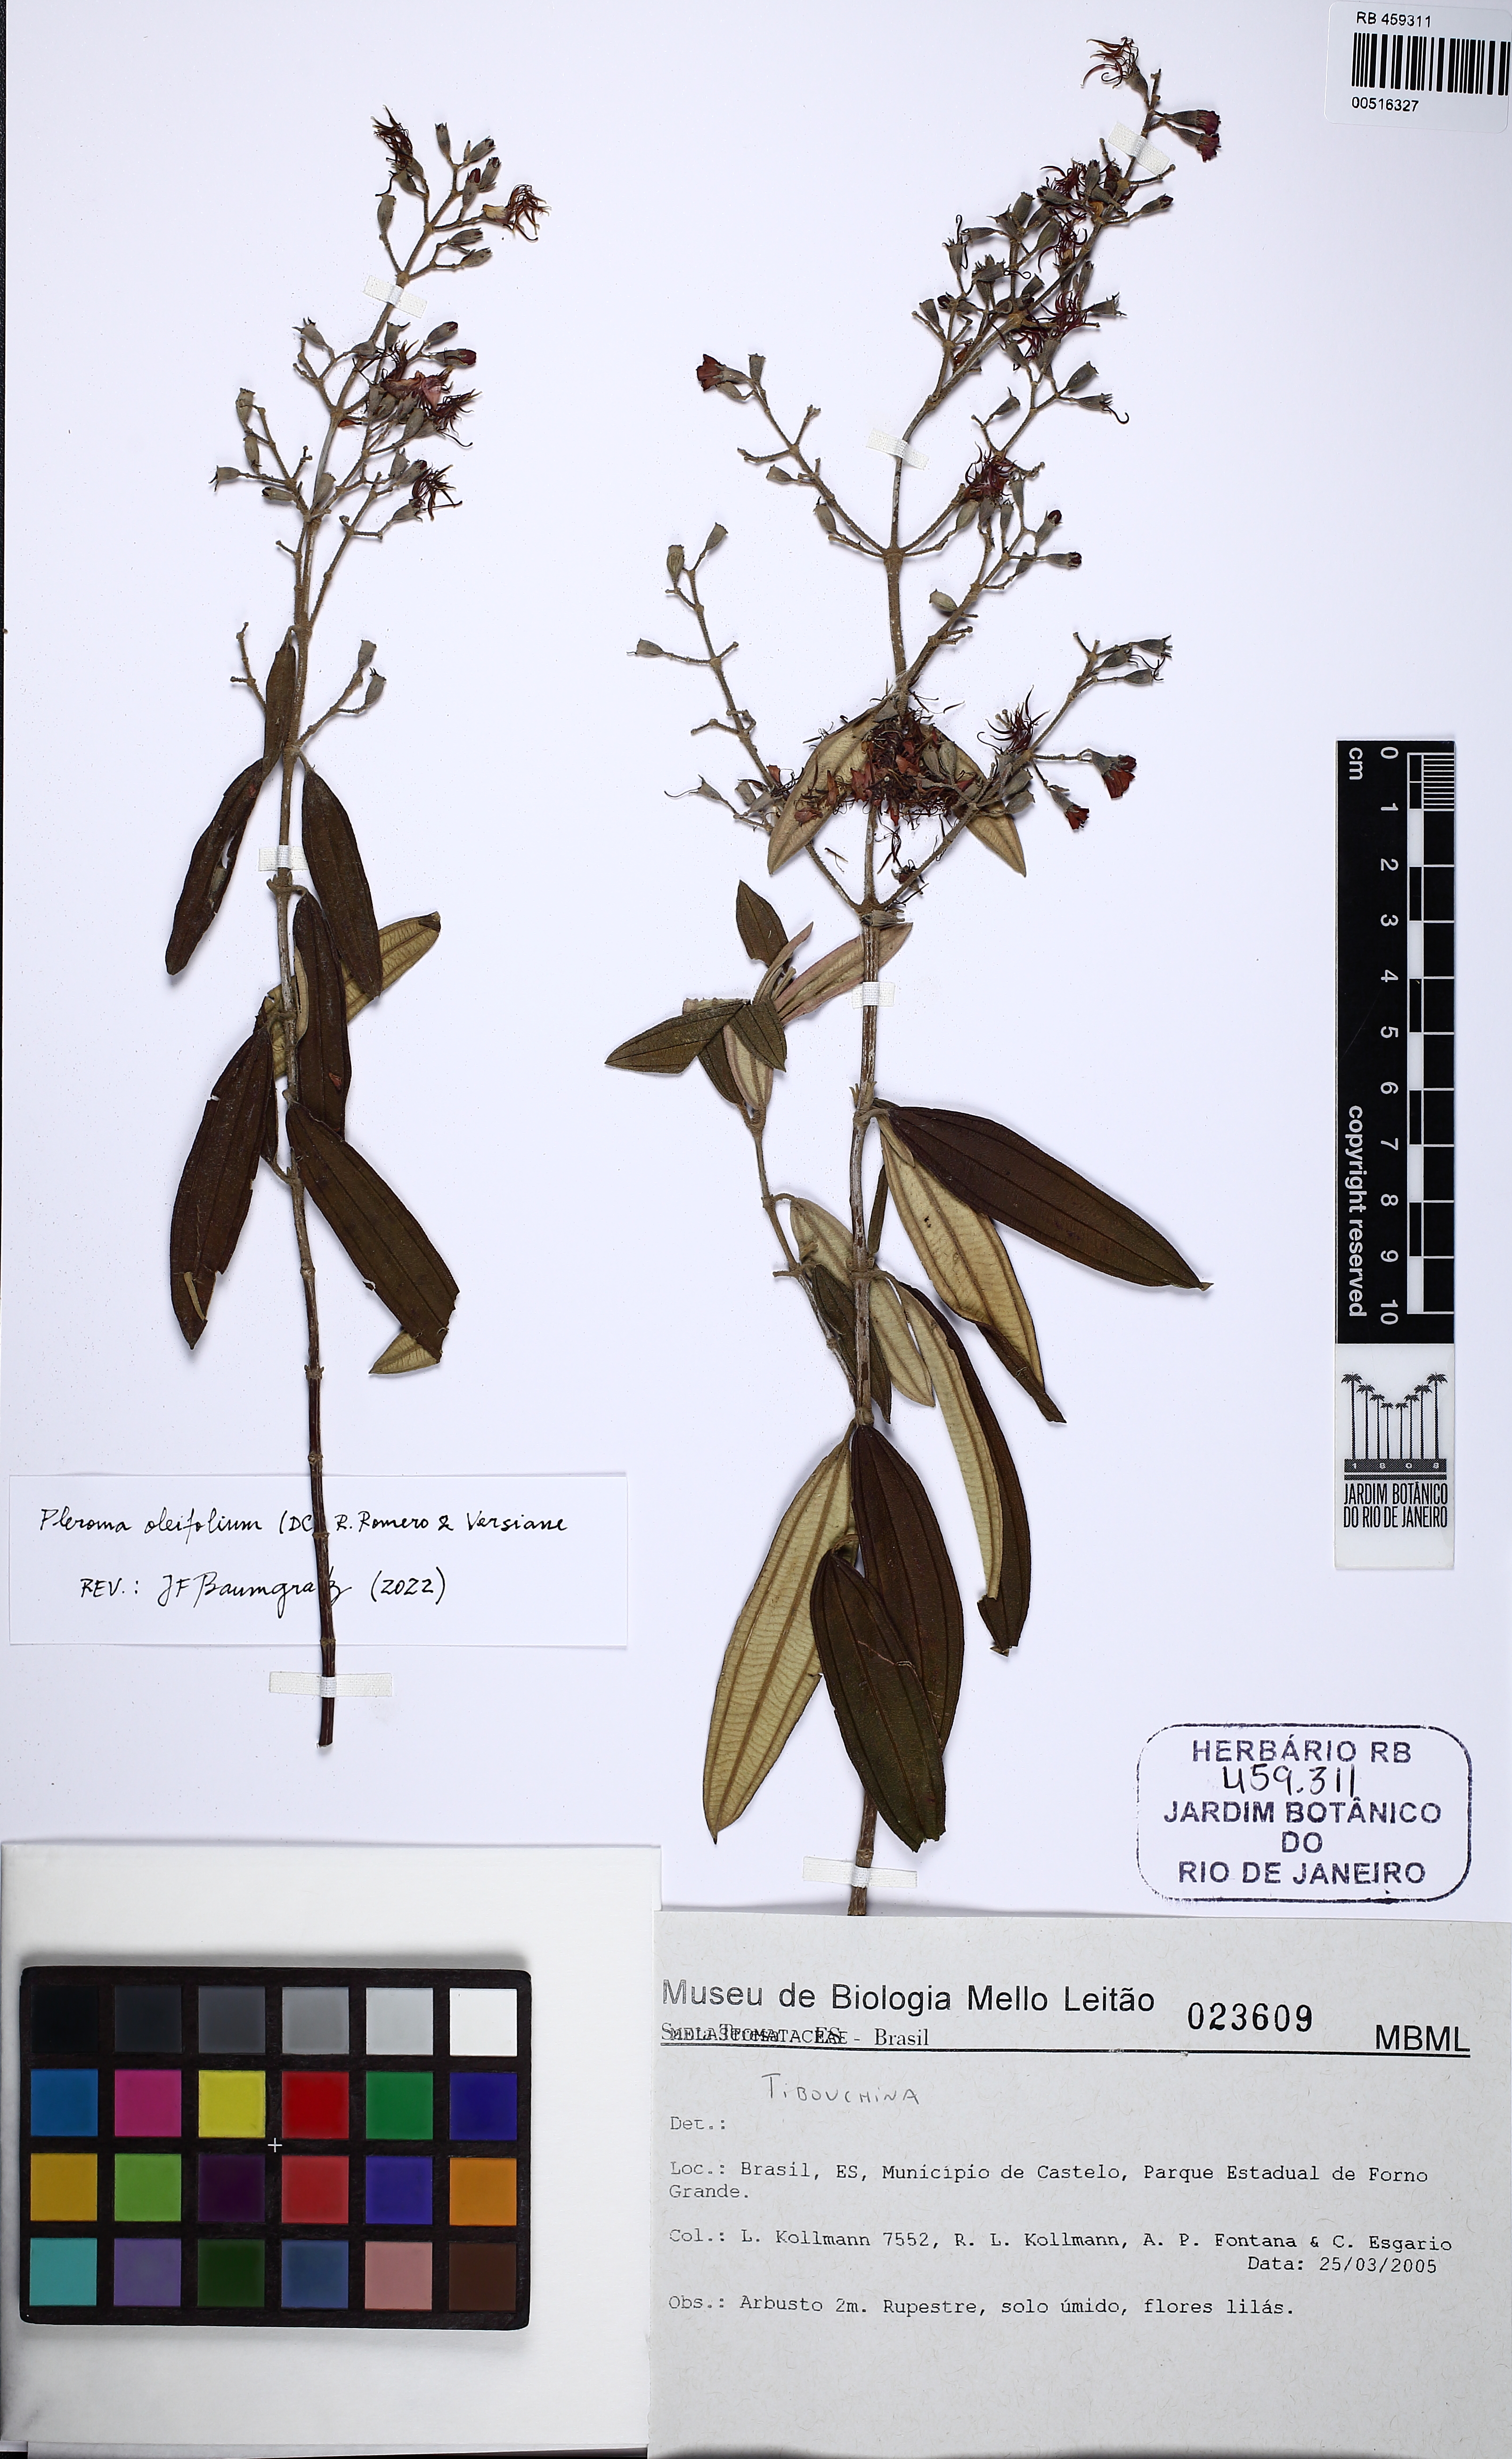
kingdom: Plantae
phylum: Tracheophyta
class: Magnoliopsida
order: Myrtales
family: Melastomataceae
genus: Pleroma
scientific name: Pleroma oleifolia
